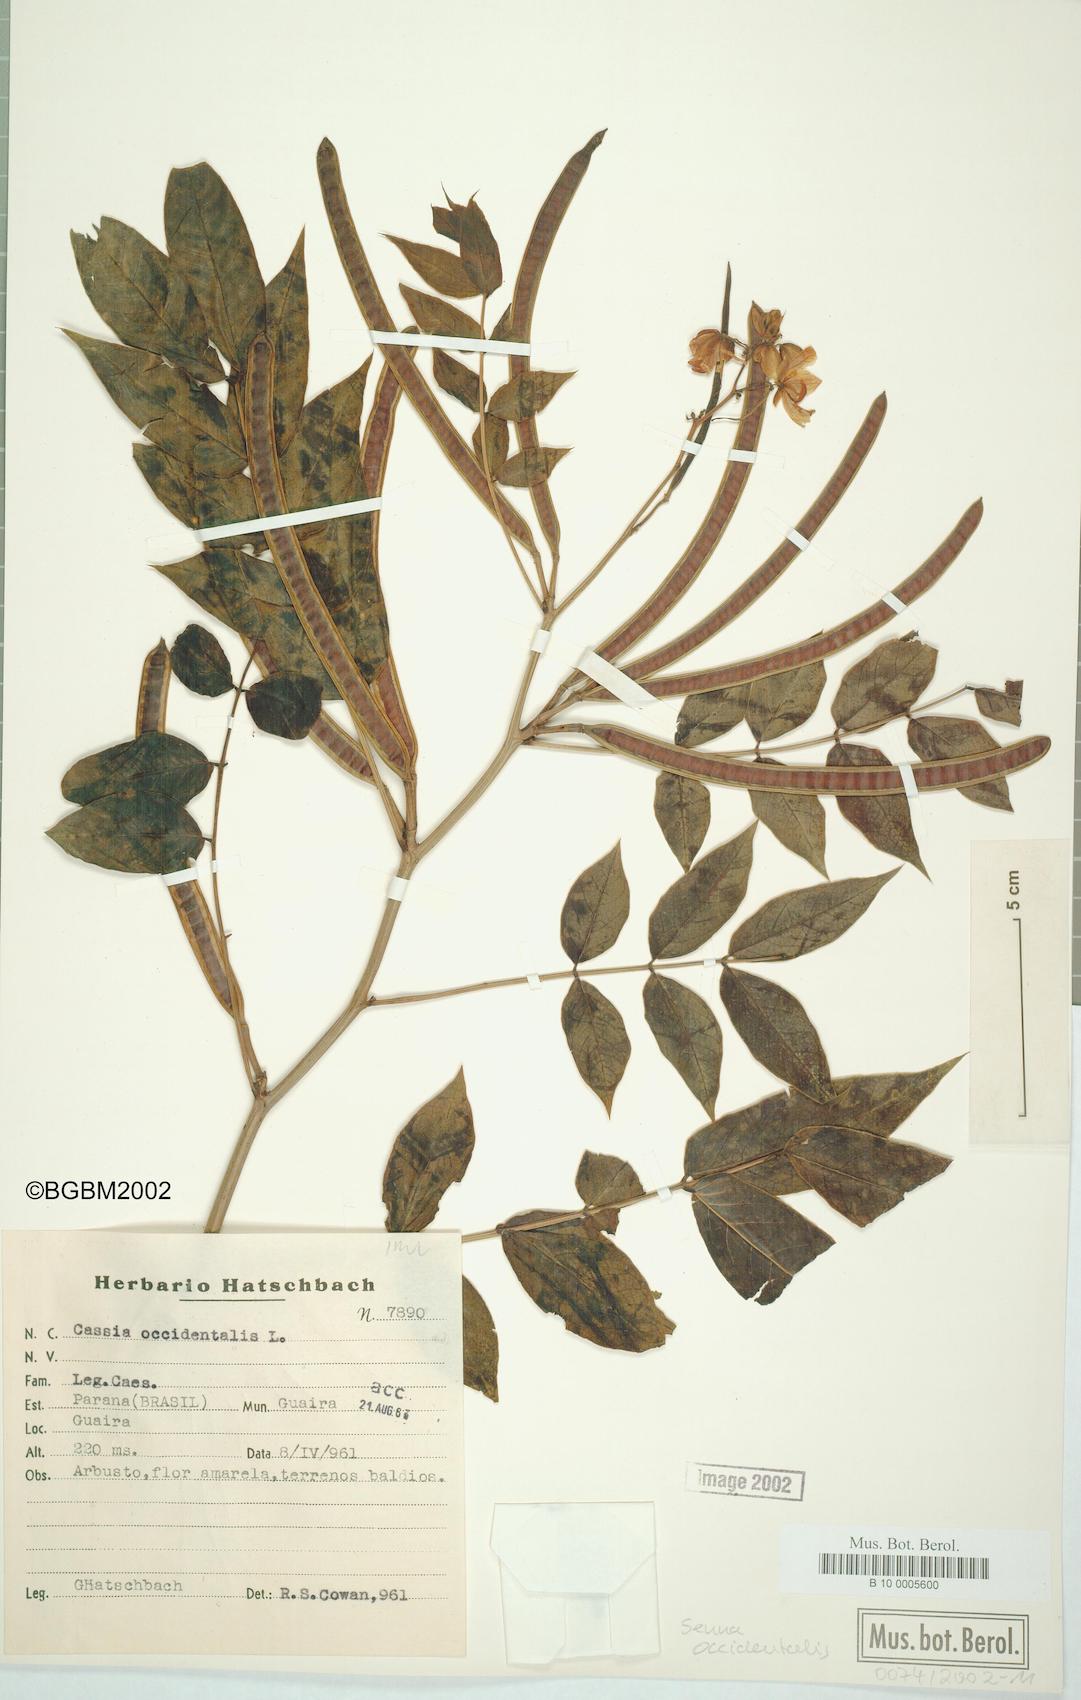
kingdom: Plantae
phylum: Tracheophyta
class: Magnoliopsida
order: Fabales
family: Fabaceae
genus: Senna
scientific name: Senna occidentalis
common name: Septicweed
